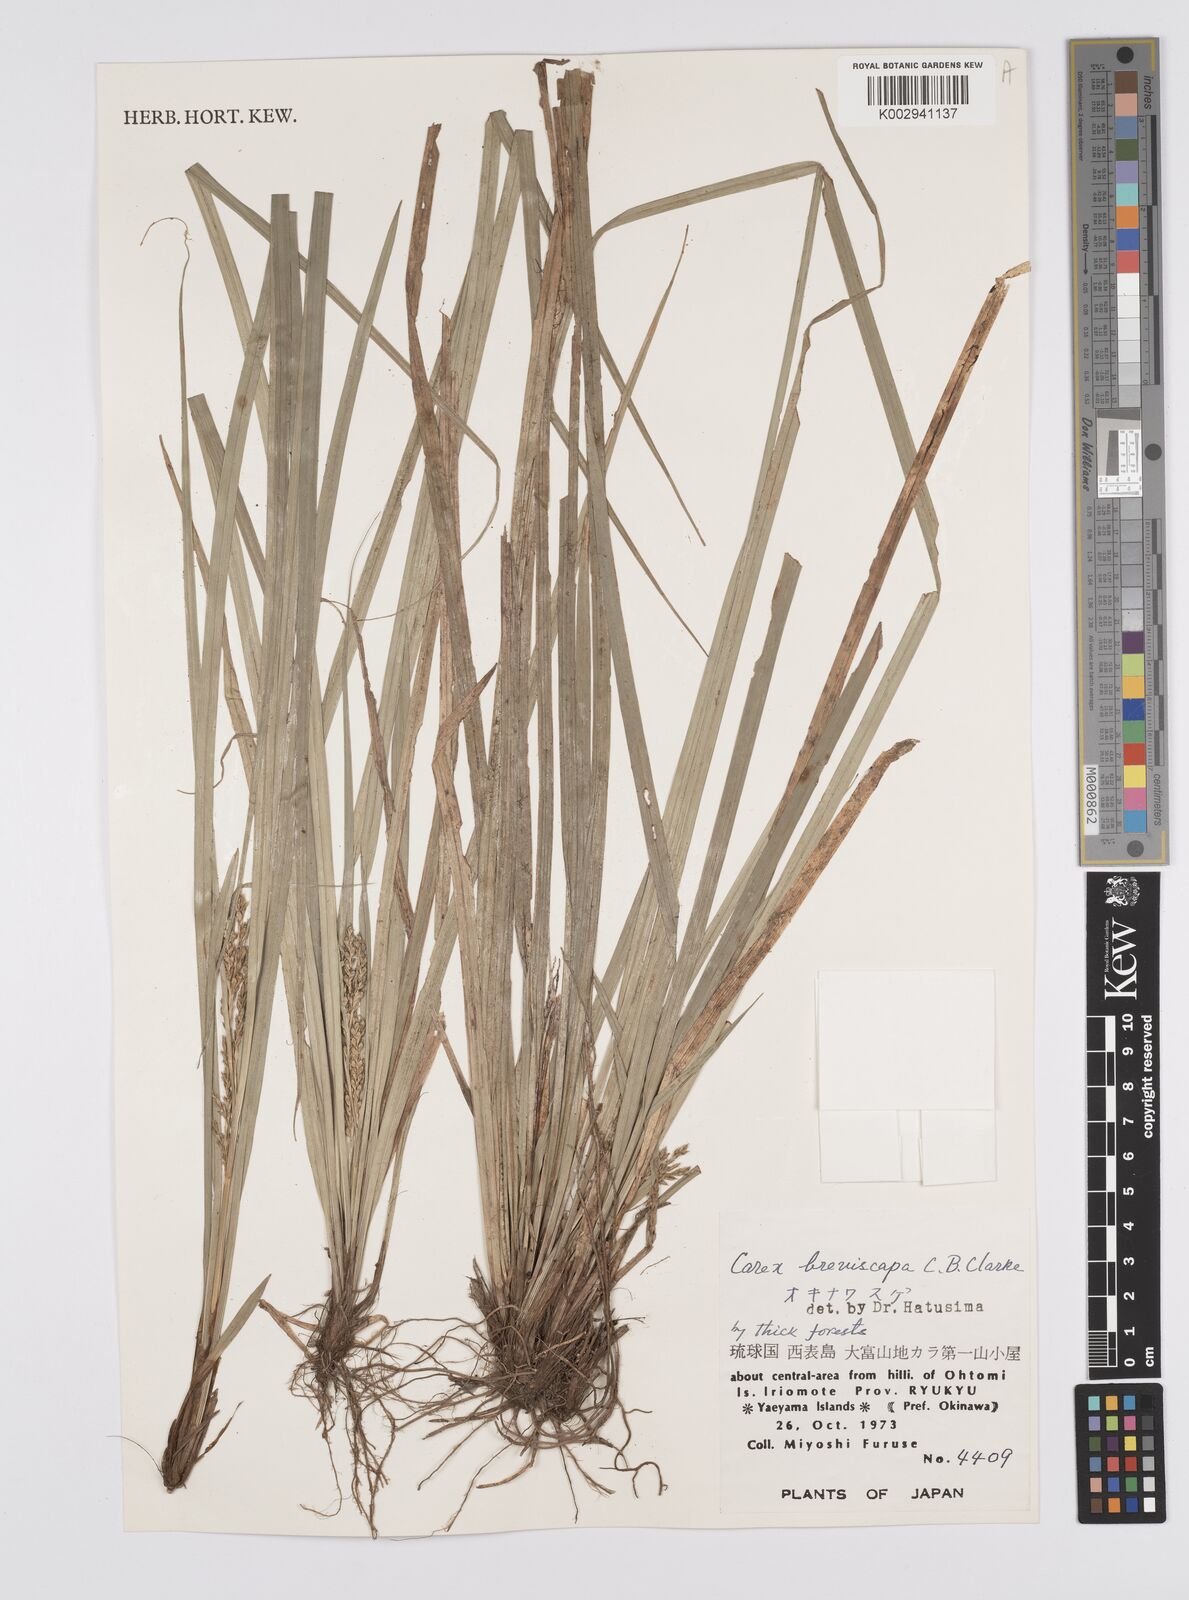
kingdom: Plantae
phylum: Tracheophyta
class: Liliopsida
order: Poales
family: Cyperaceae
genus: Carex
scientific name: Carex breviscapa
